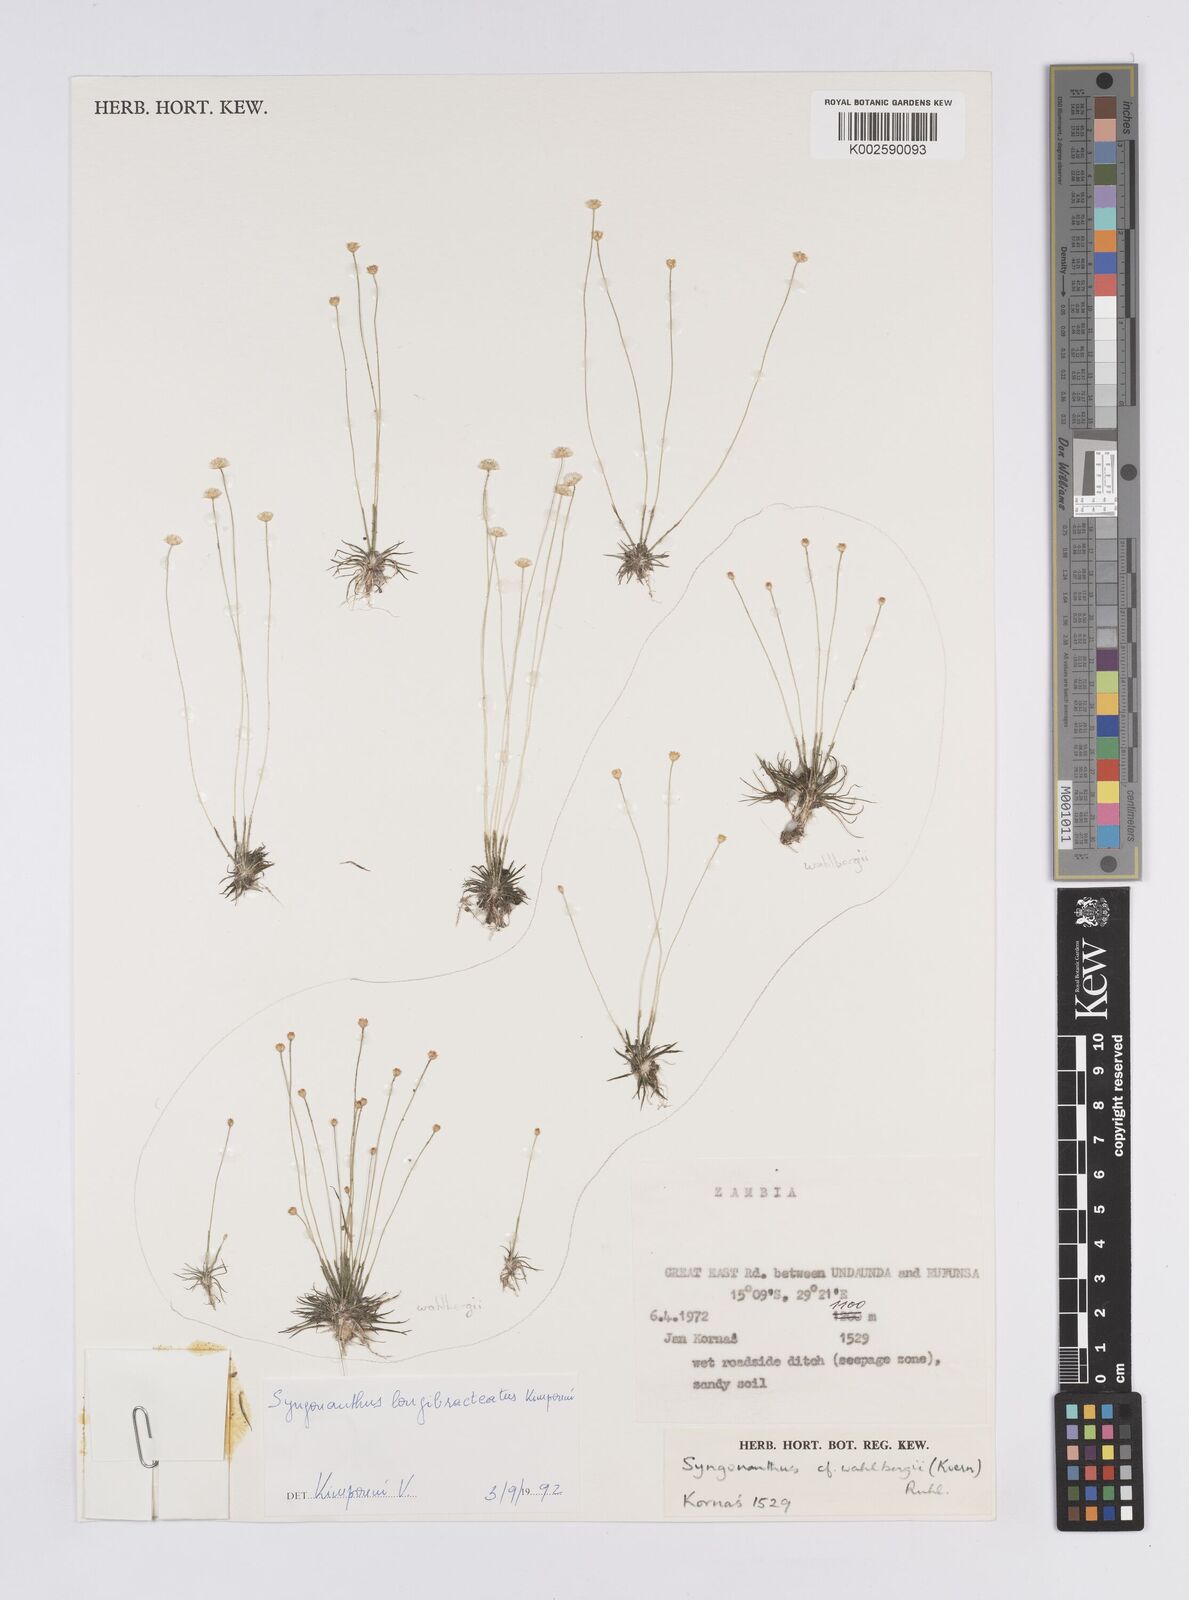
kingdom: Plantae
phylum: Tracheophyta
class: Liliopsida
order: Poales
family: Eriocaulaceae
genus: Syngonanthus
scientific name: Syngonanthus longibracteatus
